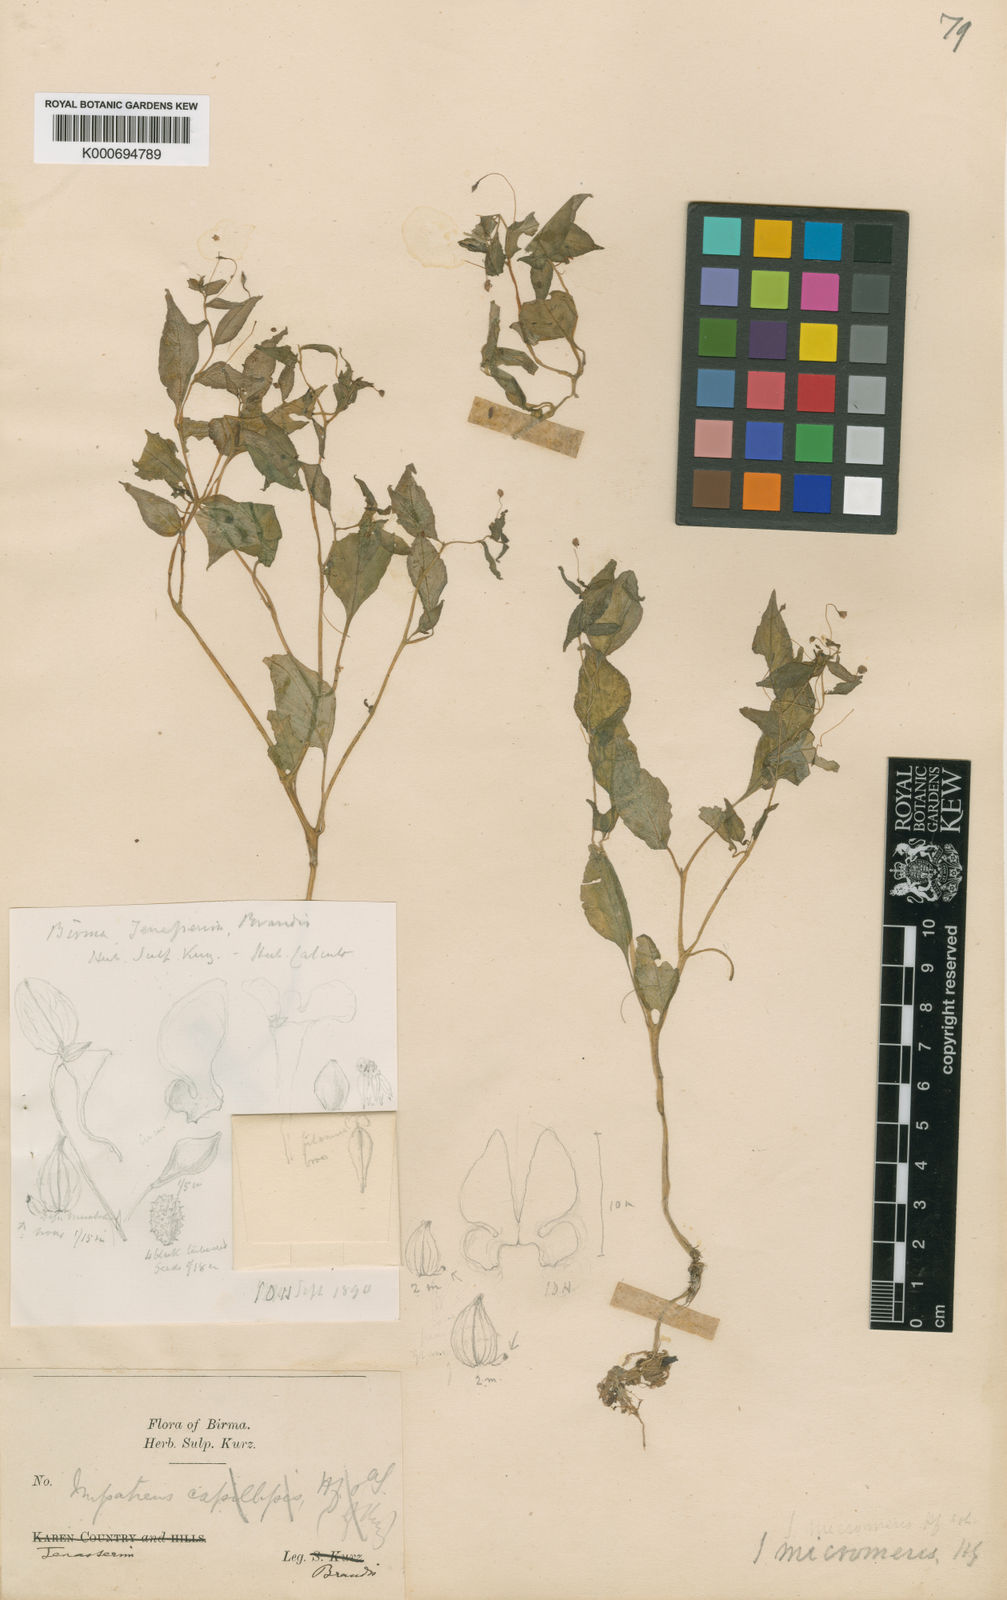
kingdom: Plantae
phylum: Tracheophyta
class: Magnoliopsida
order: Ericales
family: Balsaminaceae
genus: Impatiens
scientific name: Impatiens micromeris
